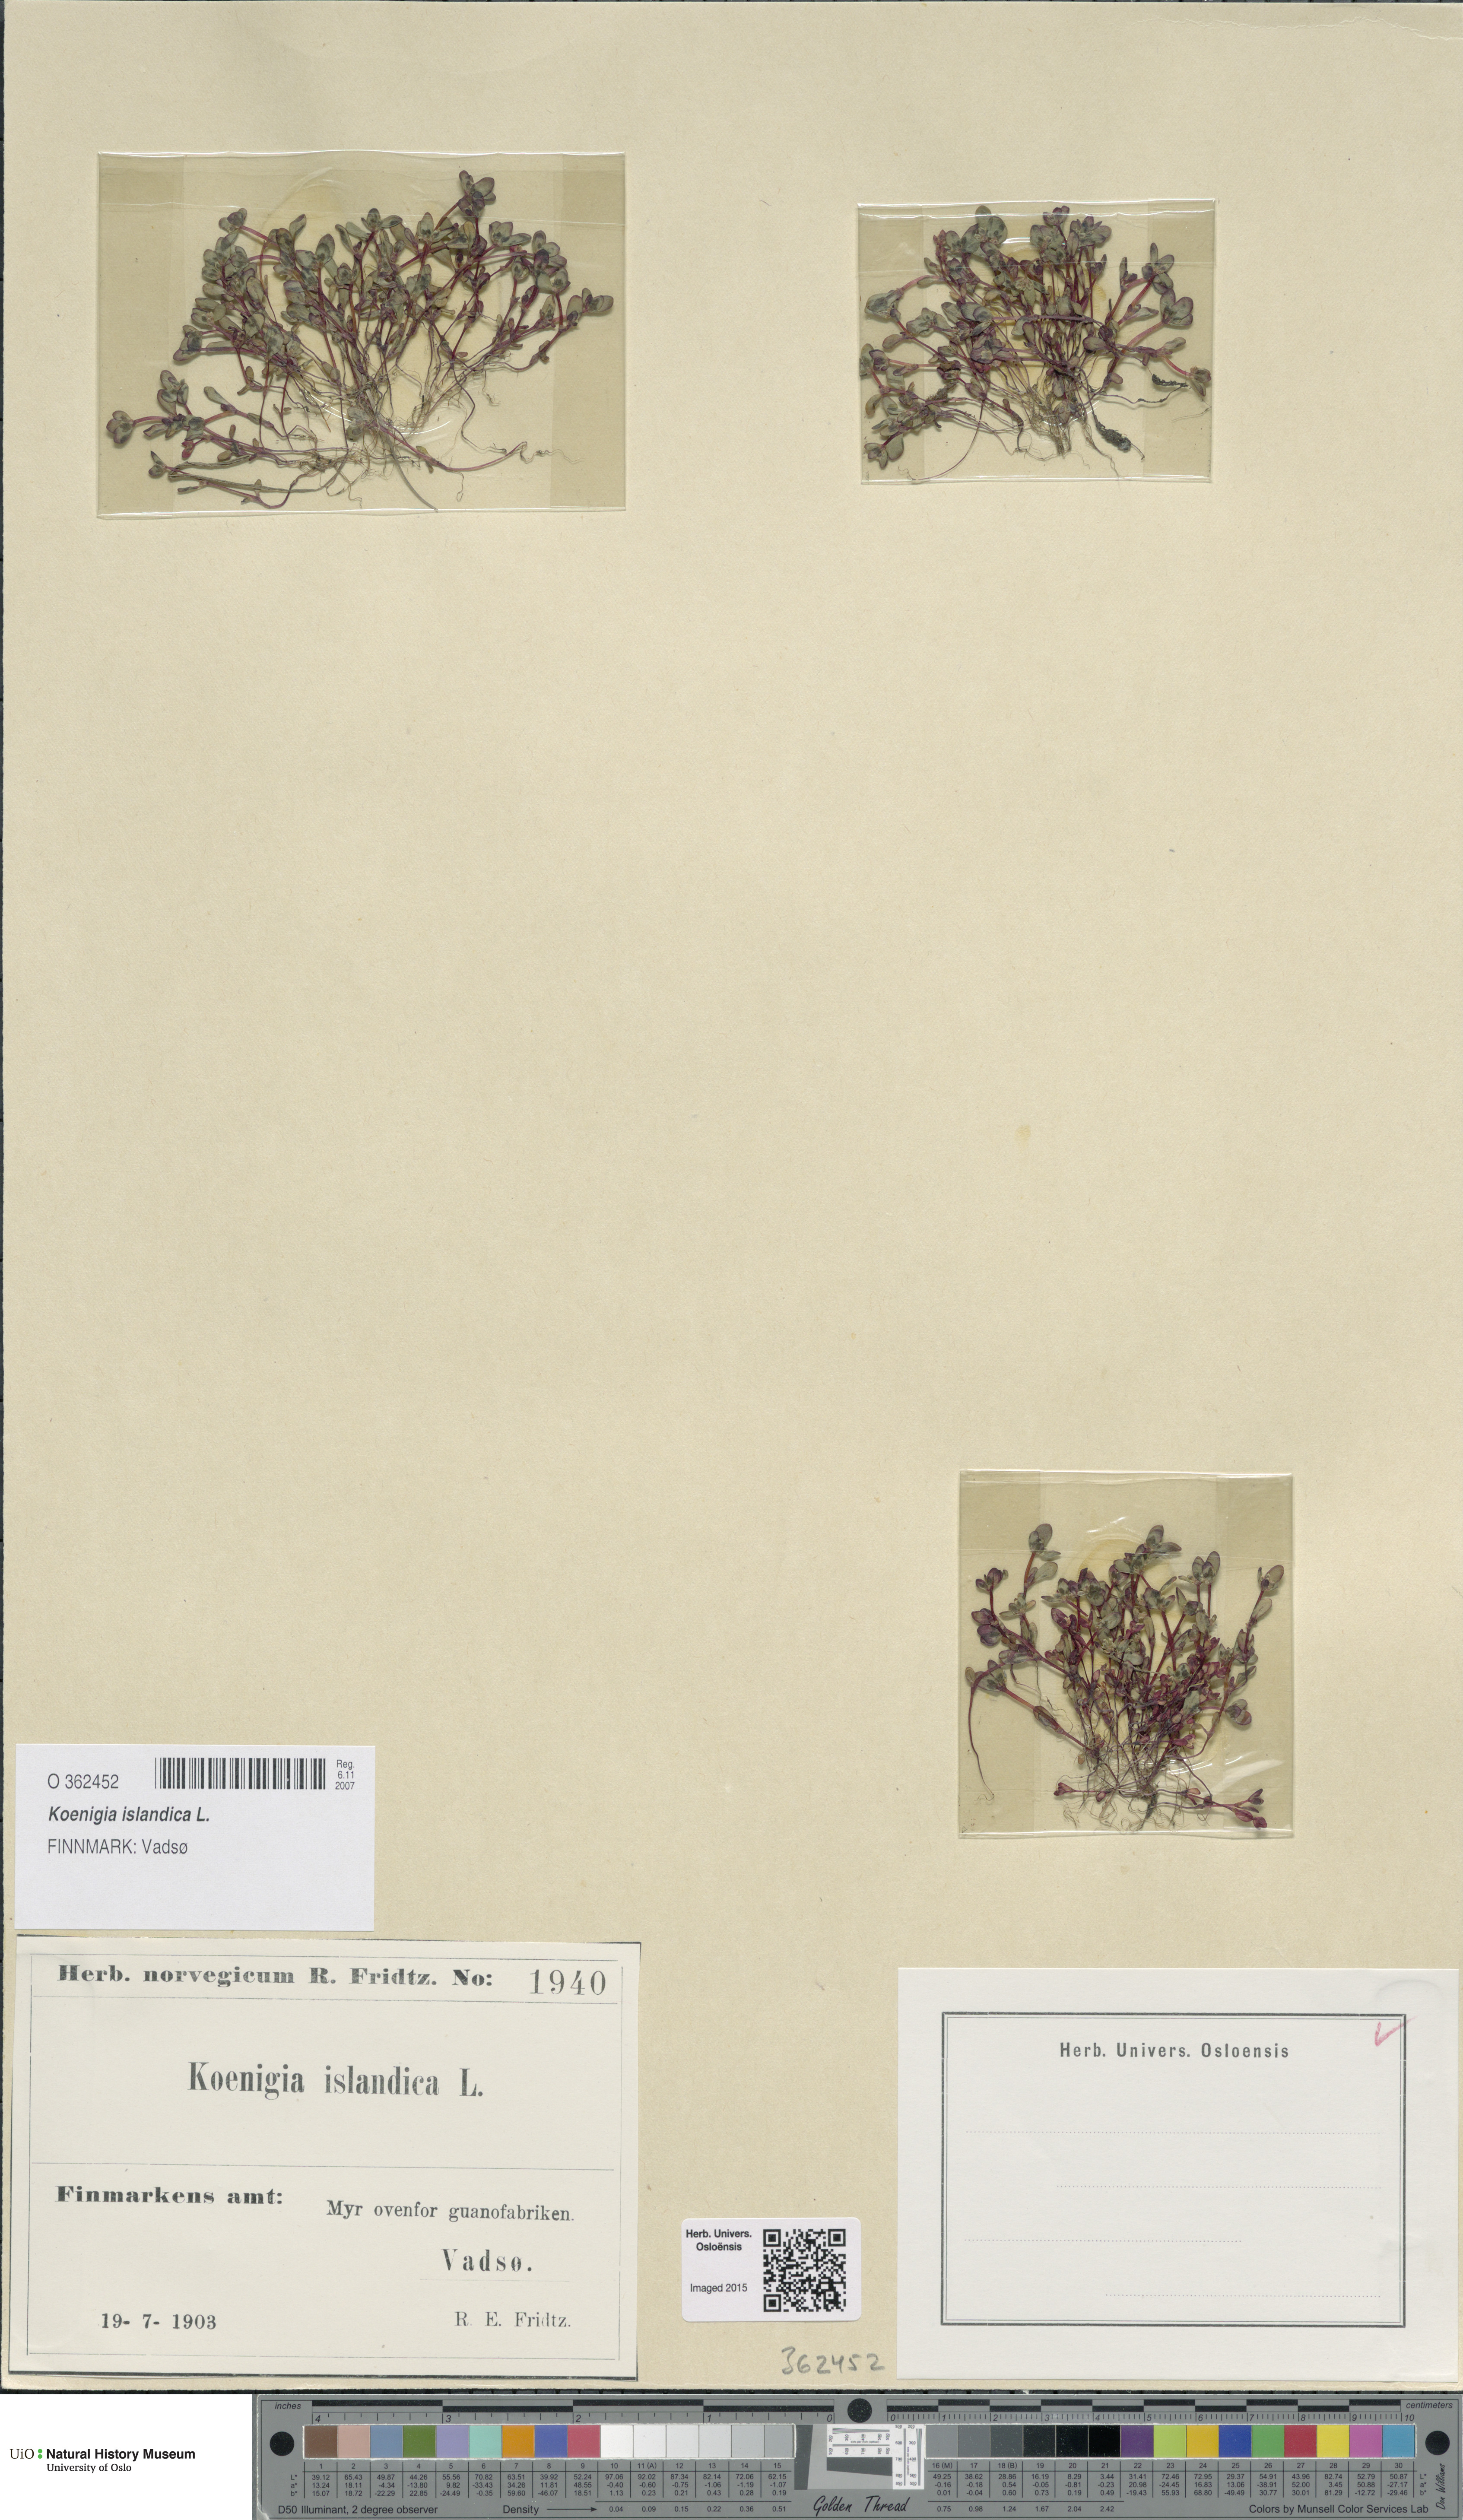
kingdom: Plantae
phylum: Tracheophyta
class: Magnoliopsida
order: Caryophyllales
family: Polygonaceae
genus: Koenigia
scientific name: Koenigia islandica
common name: Iceland-purslane
